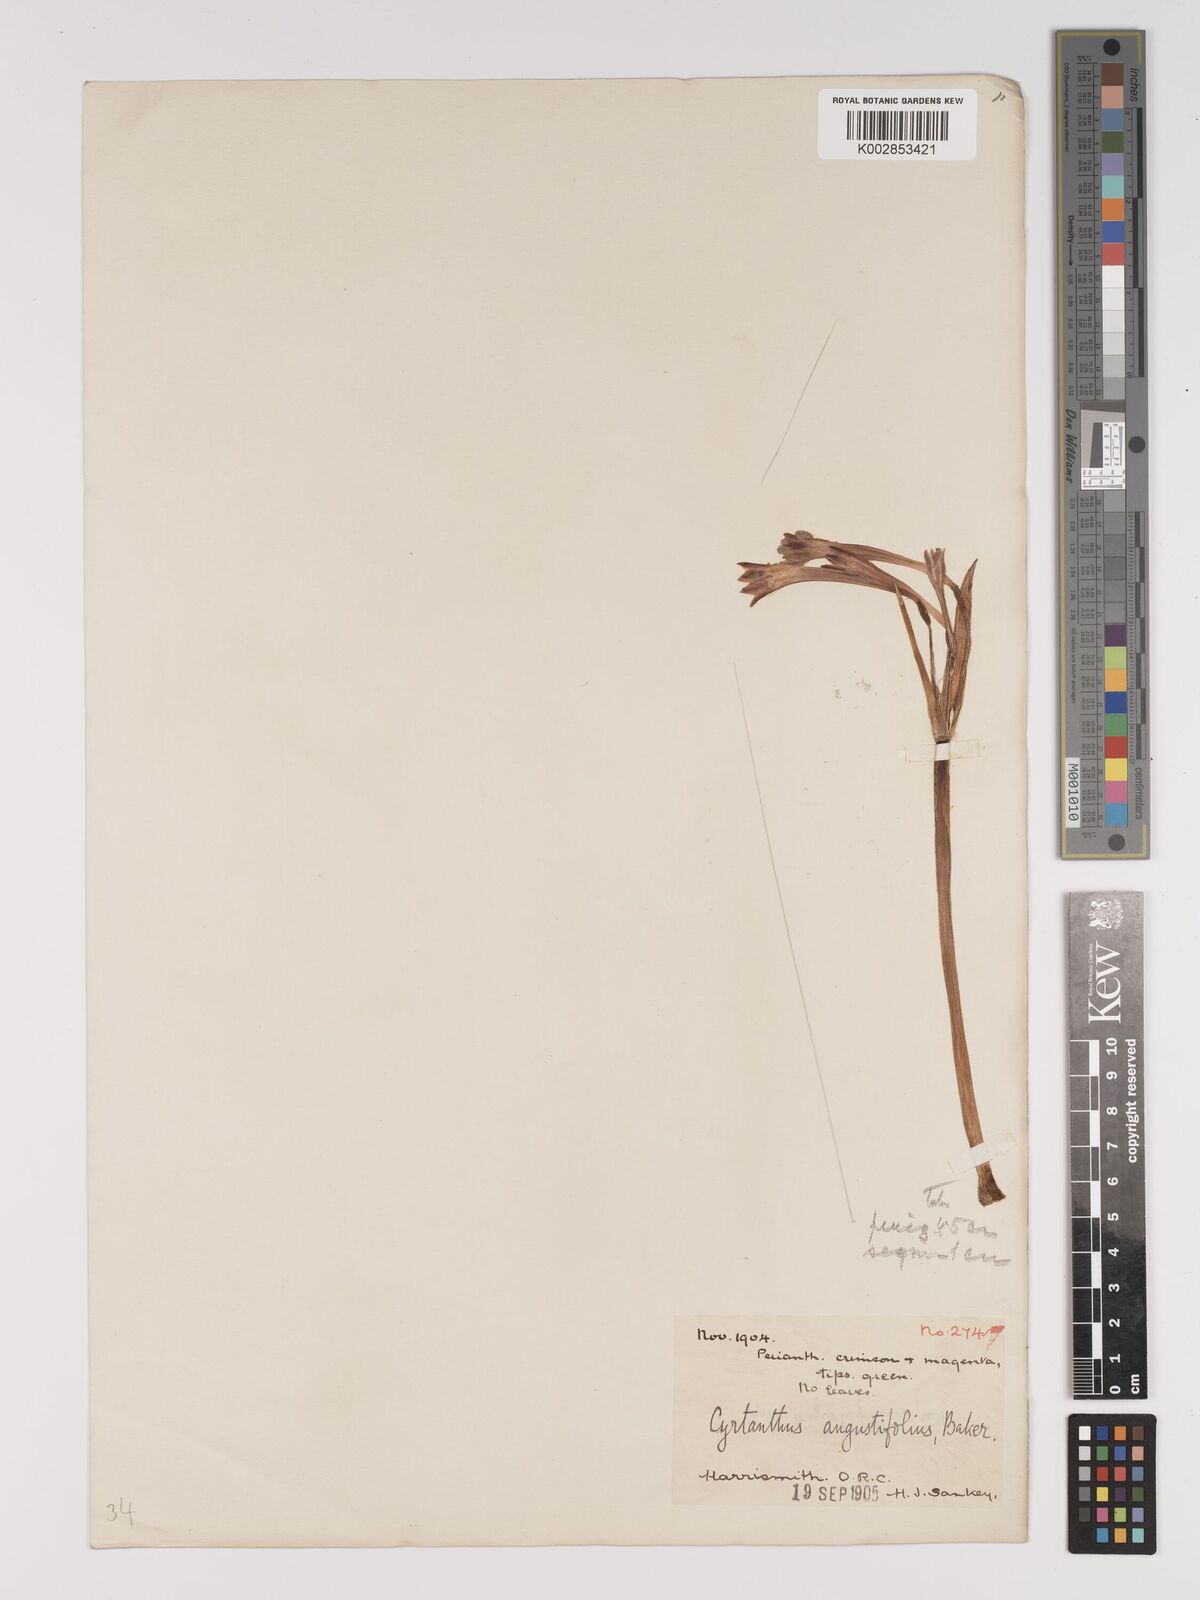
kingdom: Plantae
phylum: Tracheophyta
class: Liliopsida
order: Asparagales
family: Amaryllidaceae
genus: Cyrtanthus
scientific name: Cyrtanthus contractus
